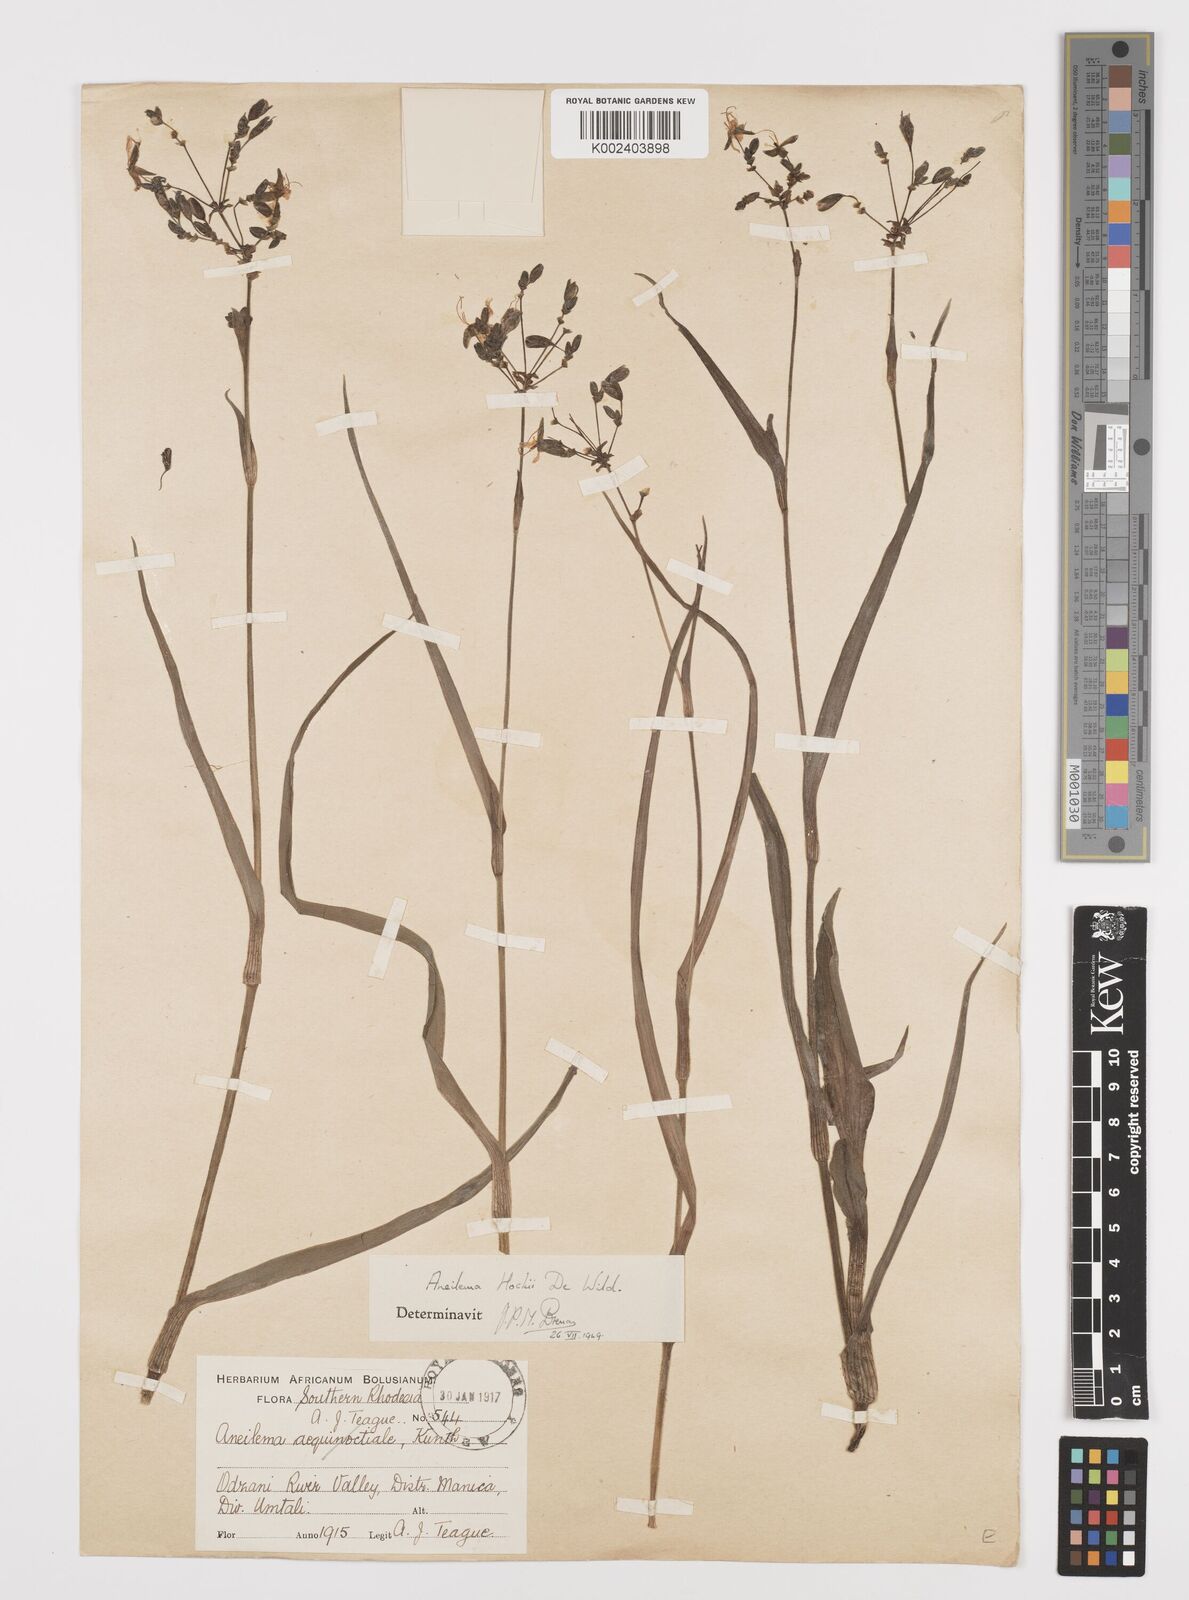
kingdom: Plantae
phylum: Tracheophyta
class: Liliopsida
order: Commelinales
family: Commelinaceae
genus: Aneilema
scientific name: Aneilema hockii
